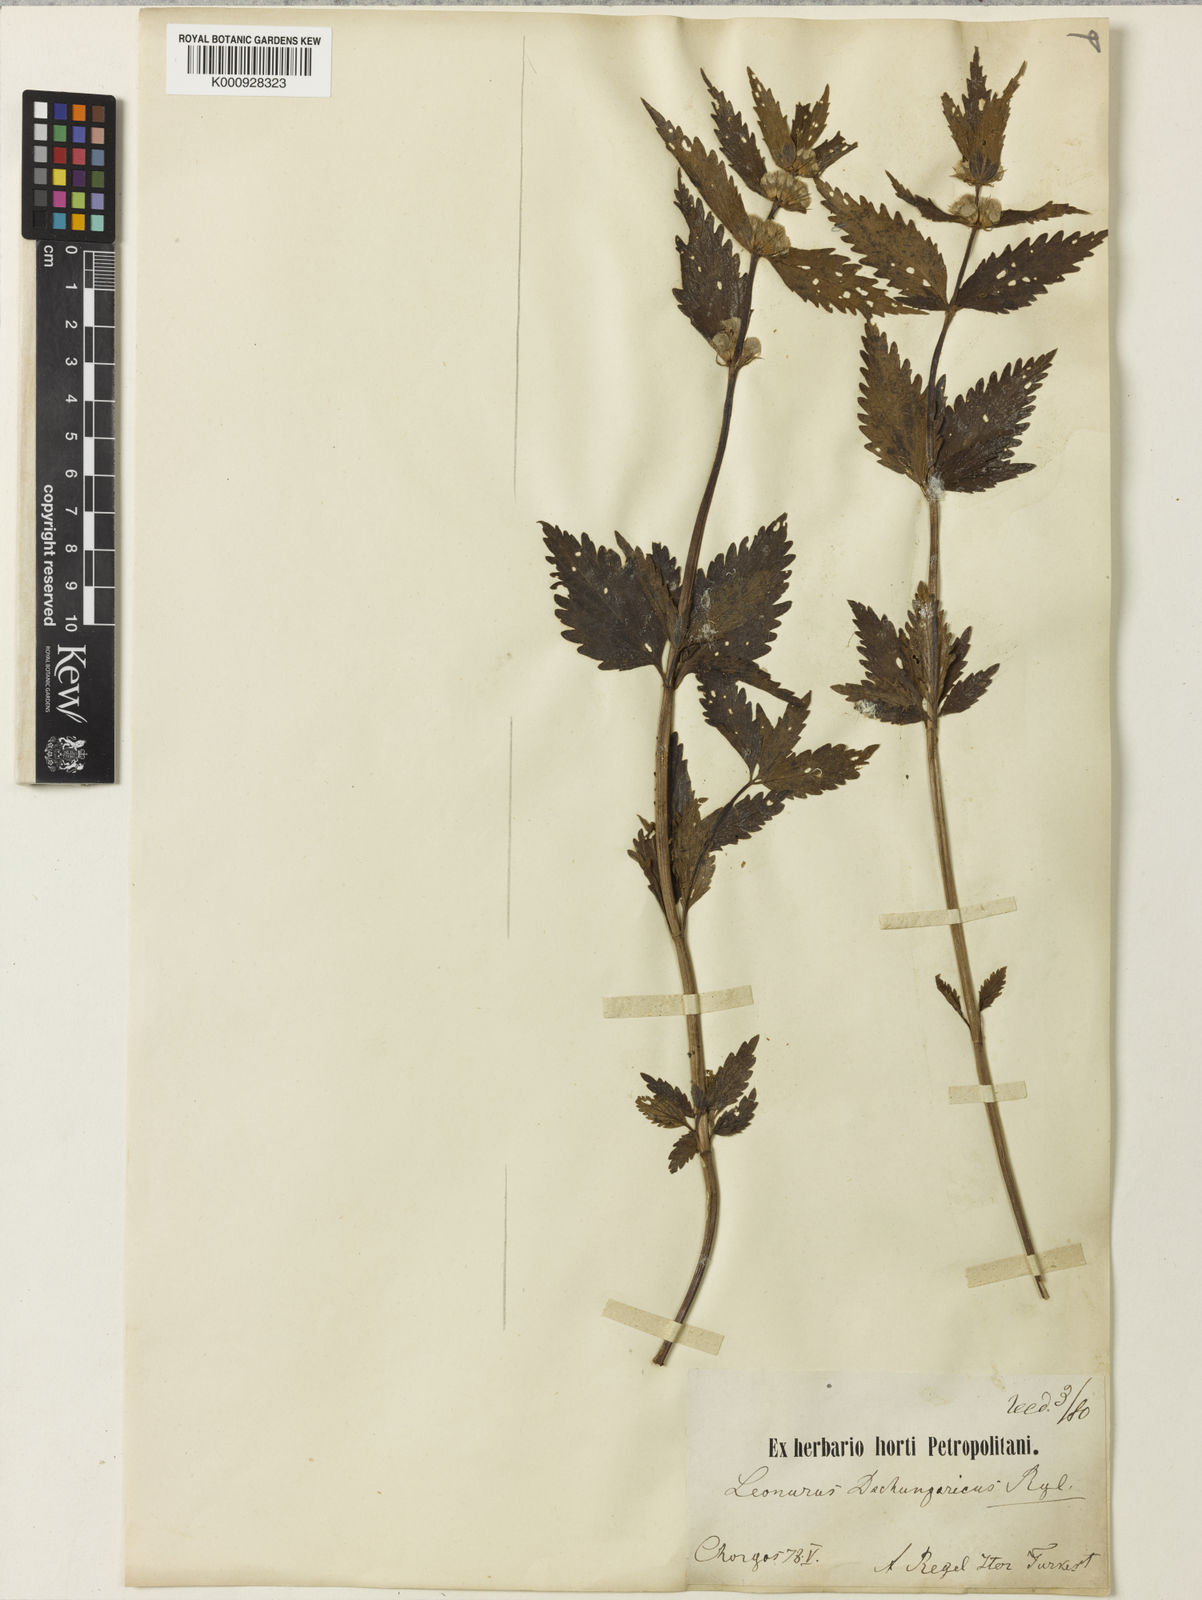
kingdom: Plantae
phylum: Tracheophyta
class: Magnoliopsida
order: Lamiales
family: Lamiaceae
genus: Eriophyton
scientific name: Eriophyton oblongatum
